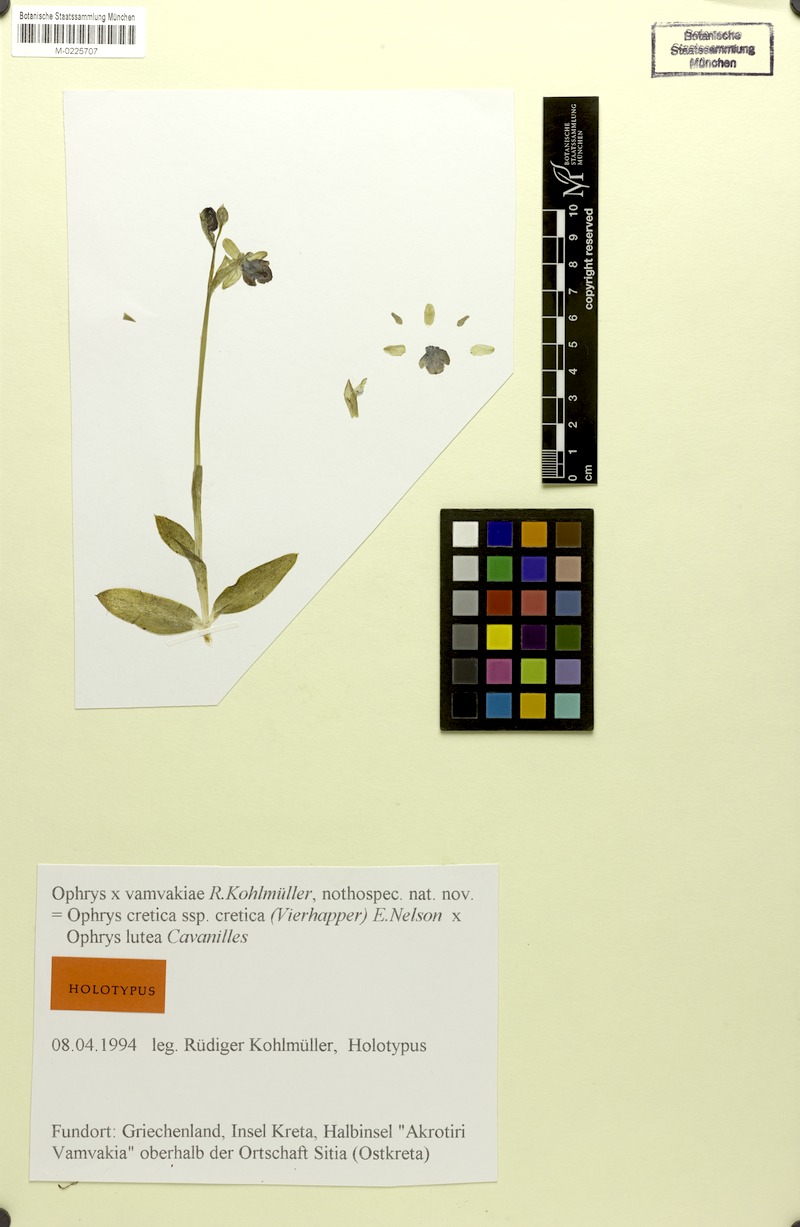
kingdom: Plantae
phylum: Tracheophyta
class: Liliopsida
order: Asparagales
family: Orchidaceae
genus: Ophrys
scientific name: Ophrys vamvakiae
